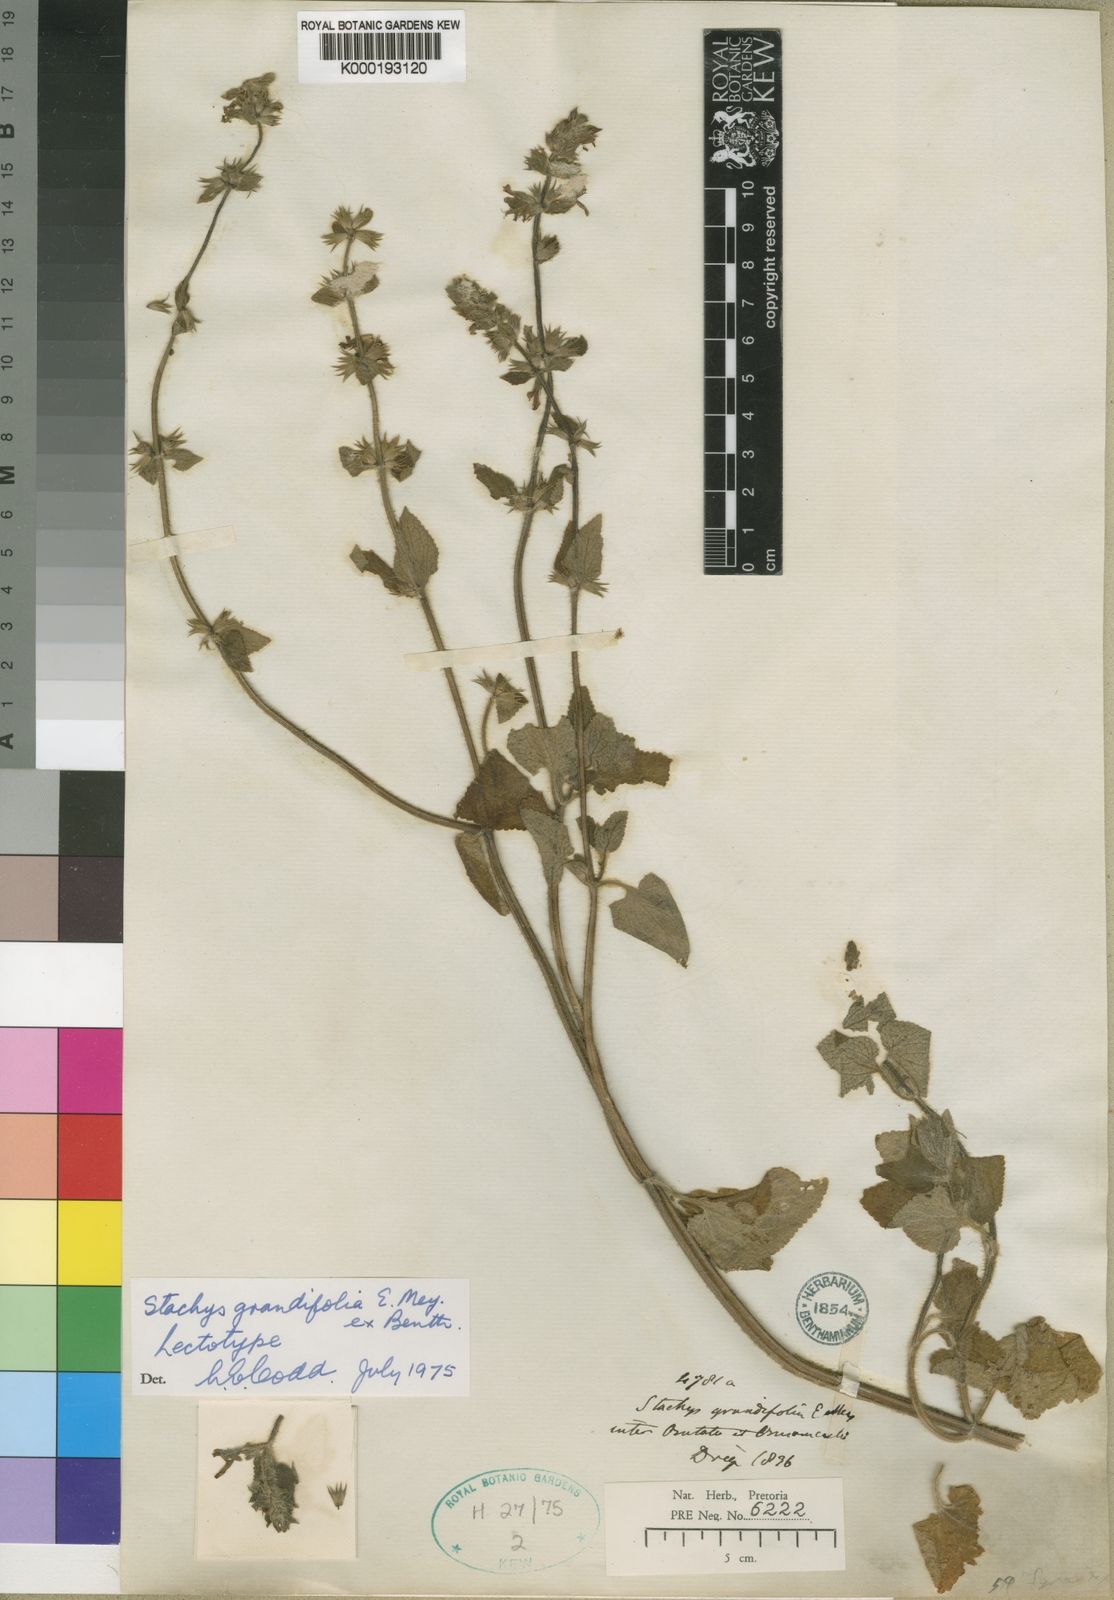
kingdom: Plantae
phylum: Tracheophyta
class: Magnoliopsida
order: Lamiales
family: Lamiaceae
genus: Stachys
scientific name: Stachys
